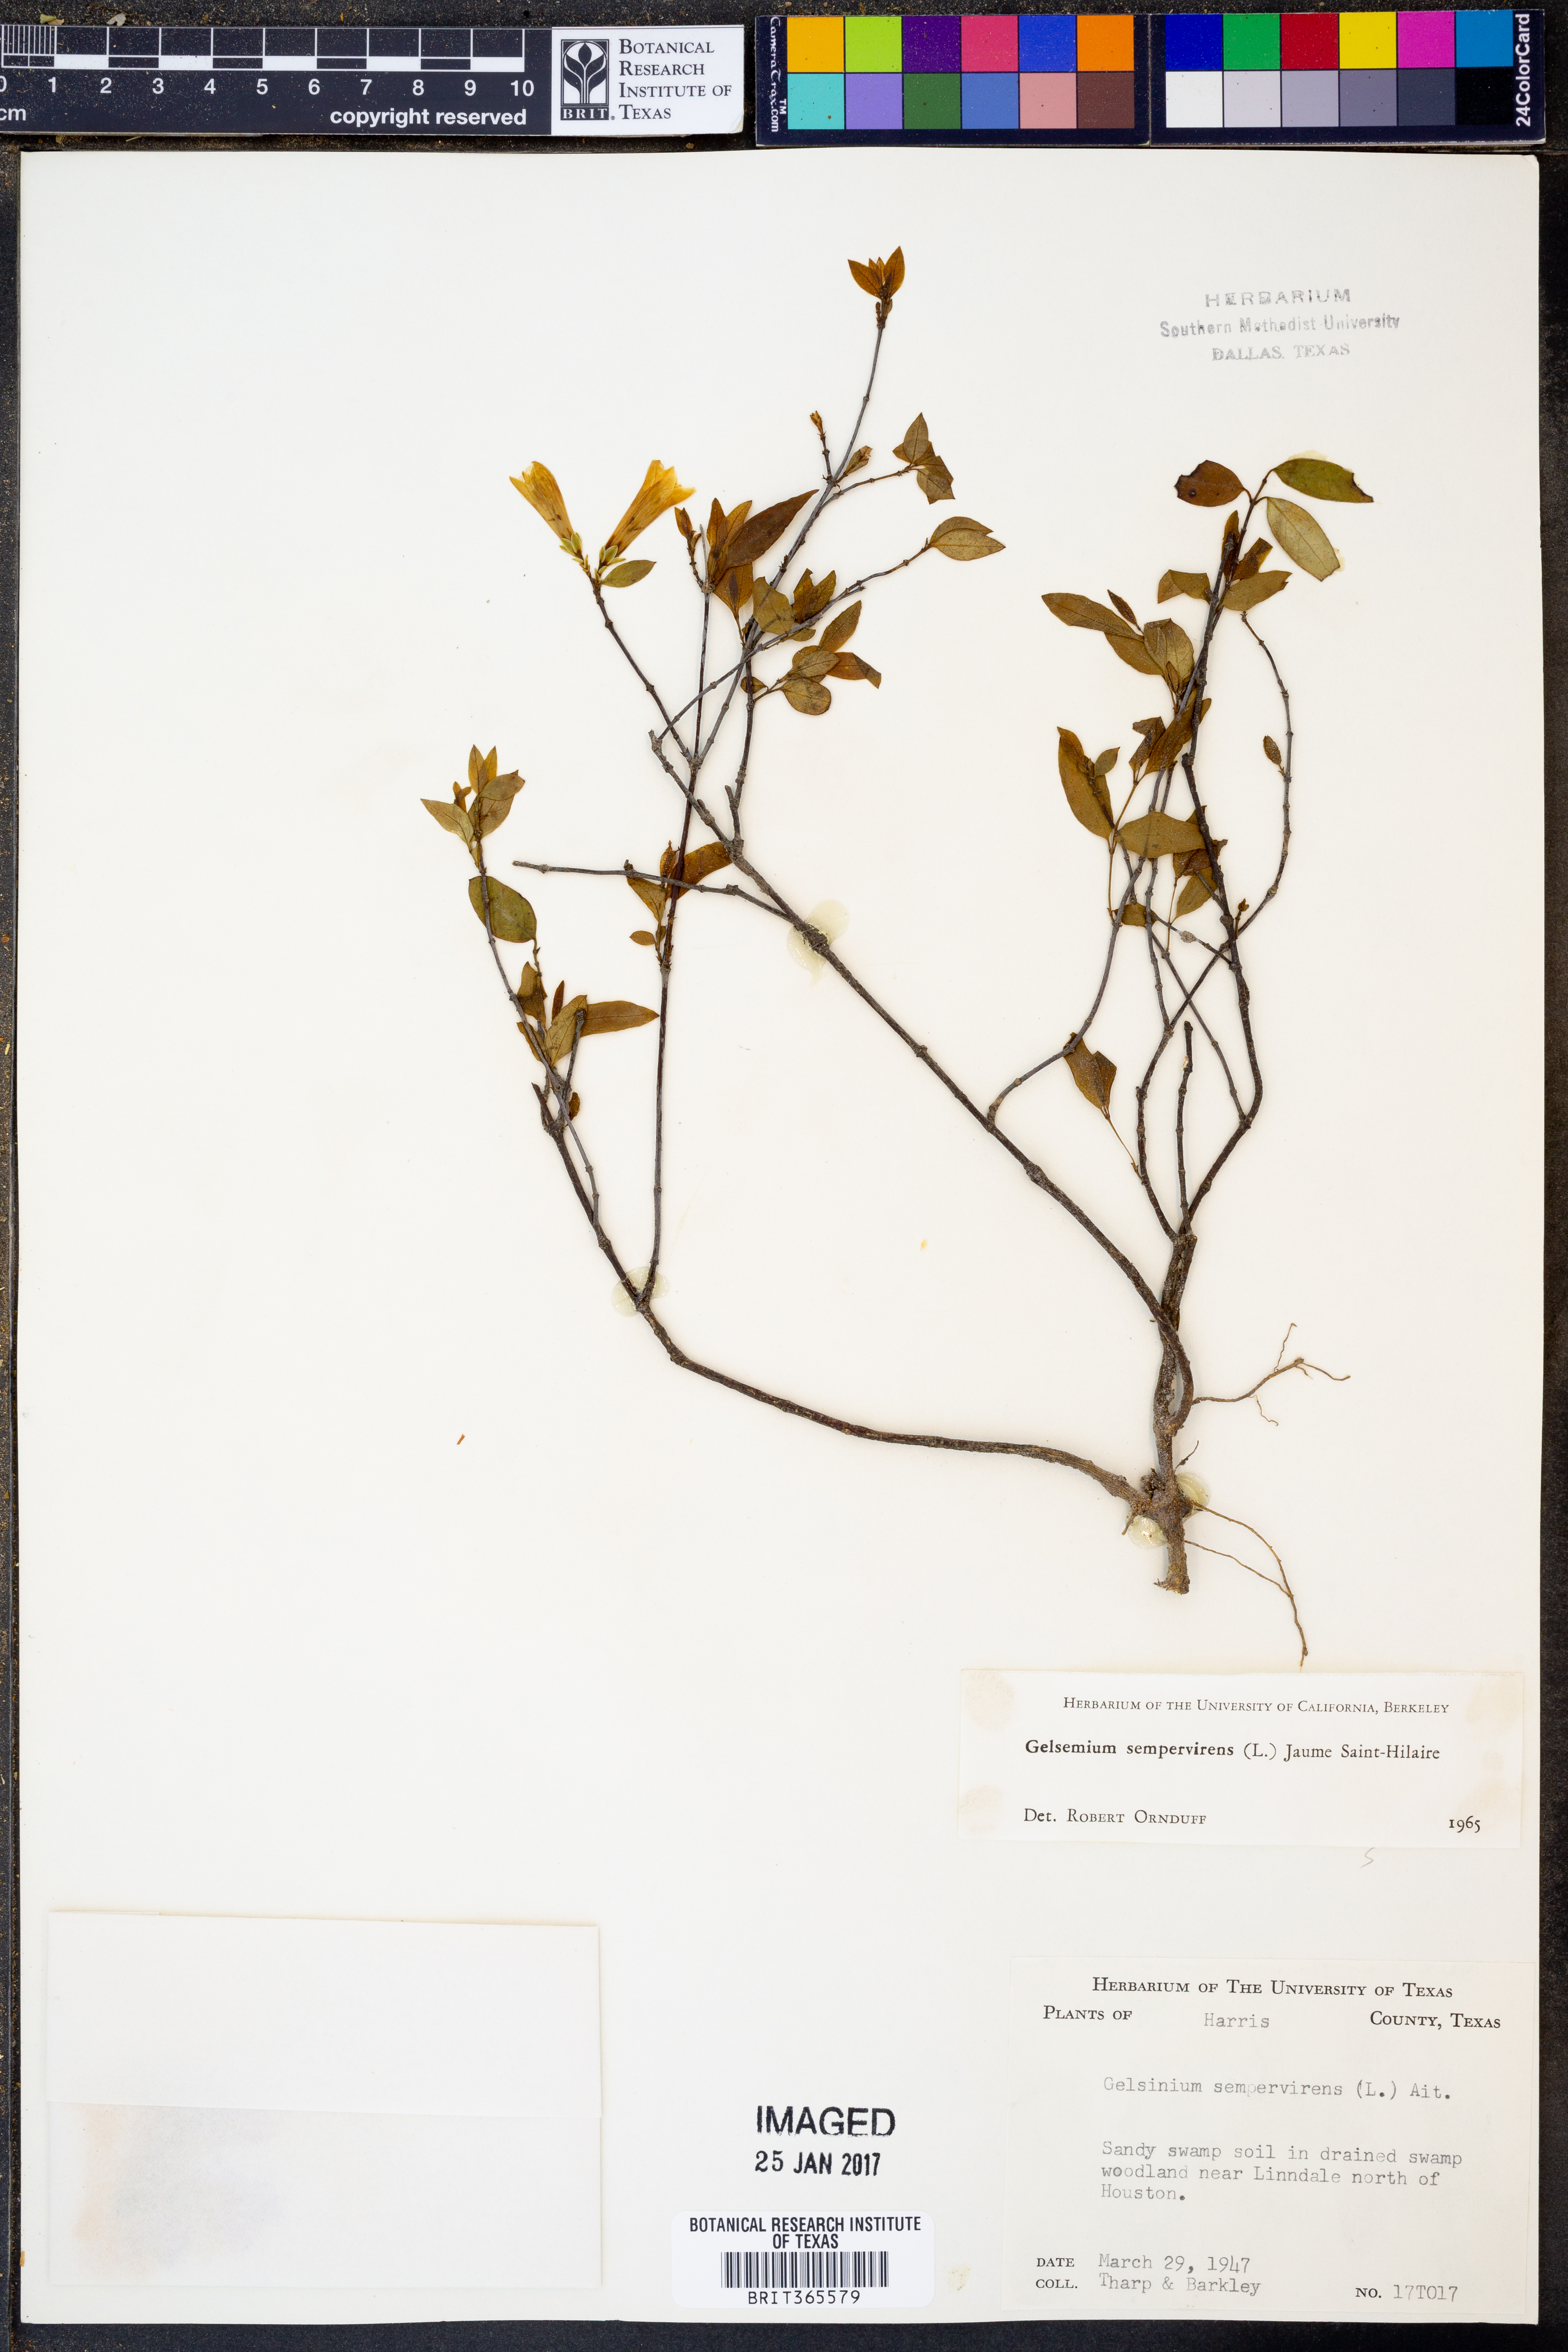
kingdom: Plantae
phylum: Tracheophyta
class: Magnoliopsida
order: Gentianales
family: Gelsemiaceae
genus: Gelsemium
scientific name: Gelsemium sempervirens
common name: Carolina-jasmine
